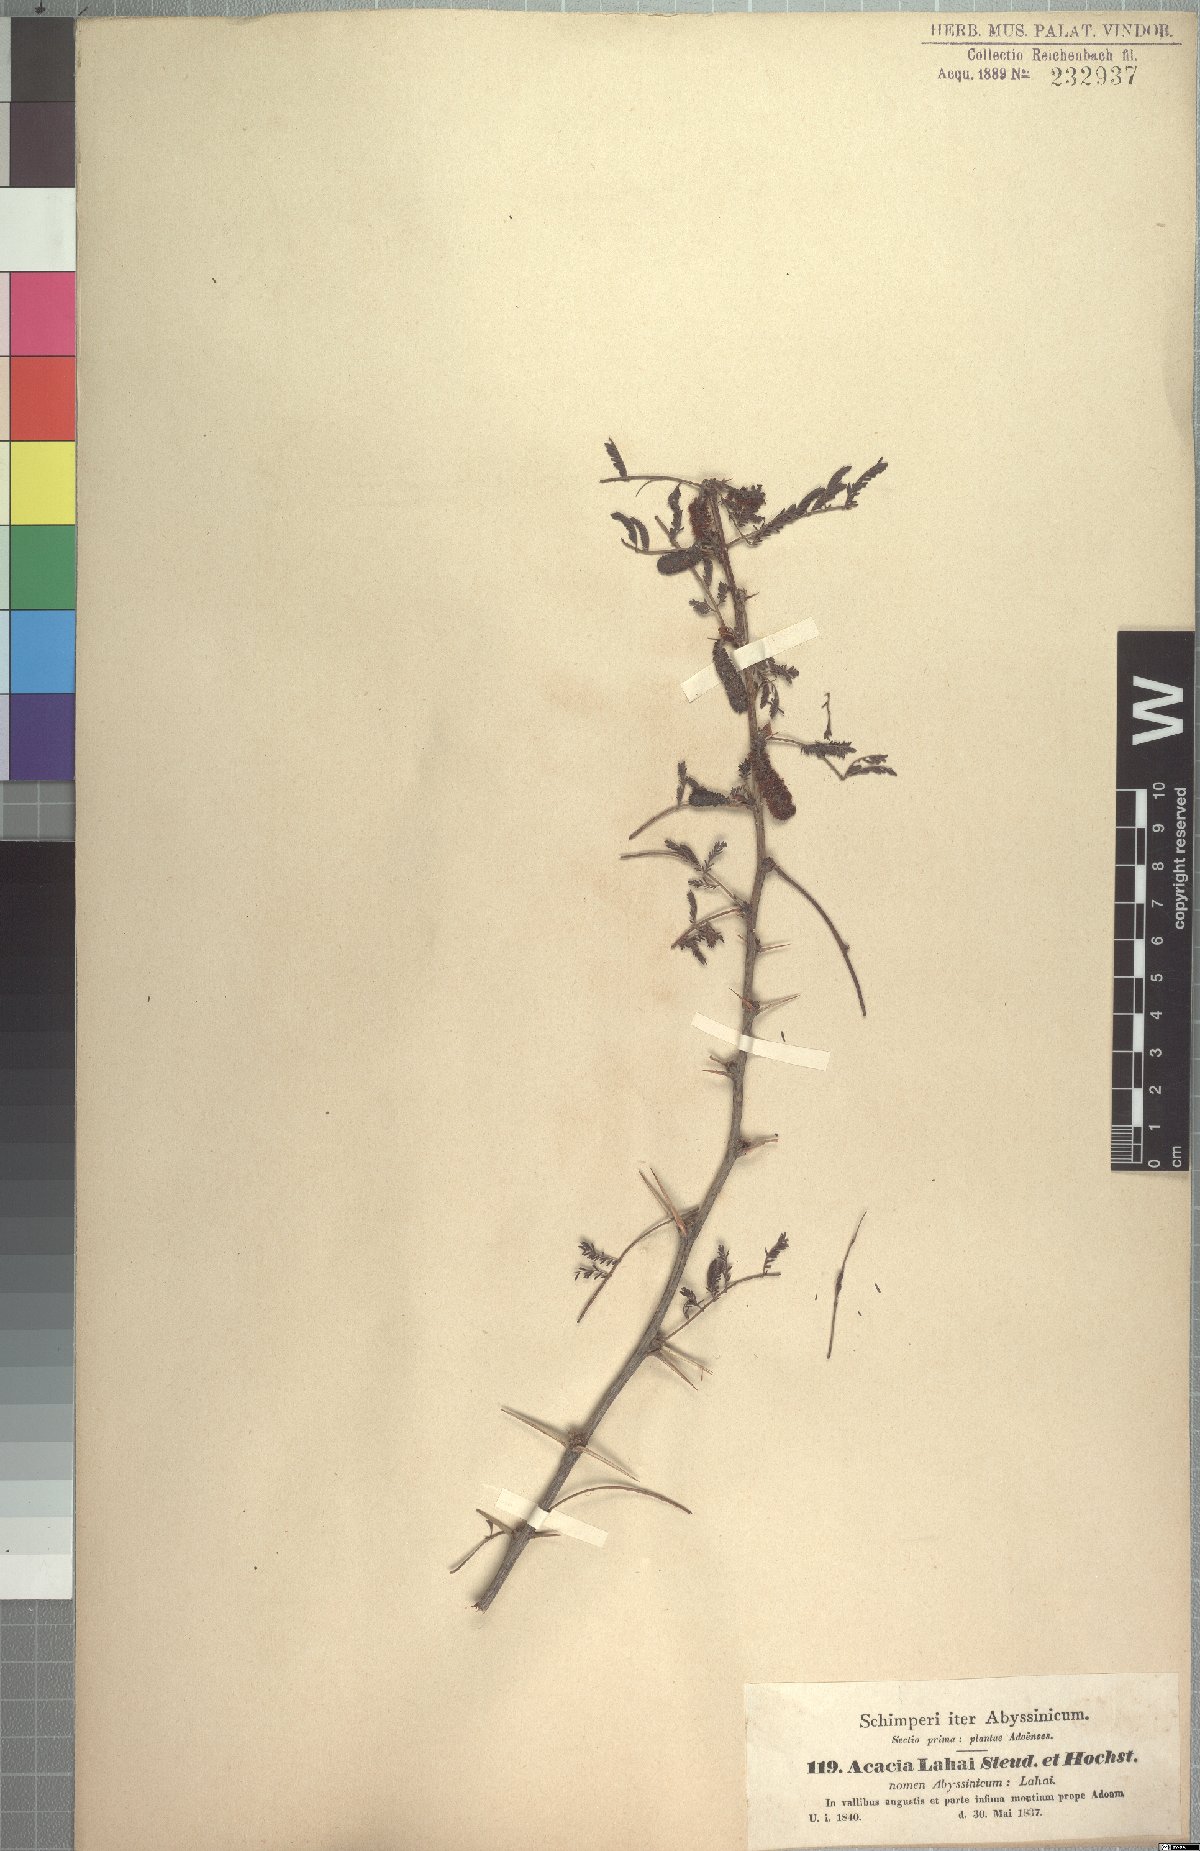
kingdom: Plantae
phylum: Tracheophyta
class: Magnoliopsida
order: Fabales
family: Fabaceae
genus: Vachellia
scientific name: Vachellia lahai
